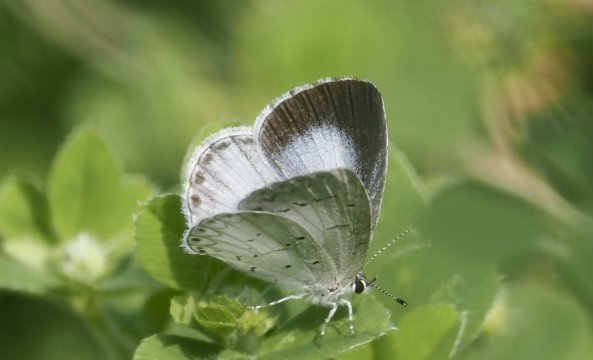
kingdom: Animalia
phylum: Arthropoda
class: Insecta
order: Lepidoptera
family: Lycaenidae
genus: Cyaniris
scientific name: Cyaniris neglecta
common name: Summer Azure
